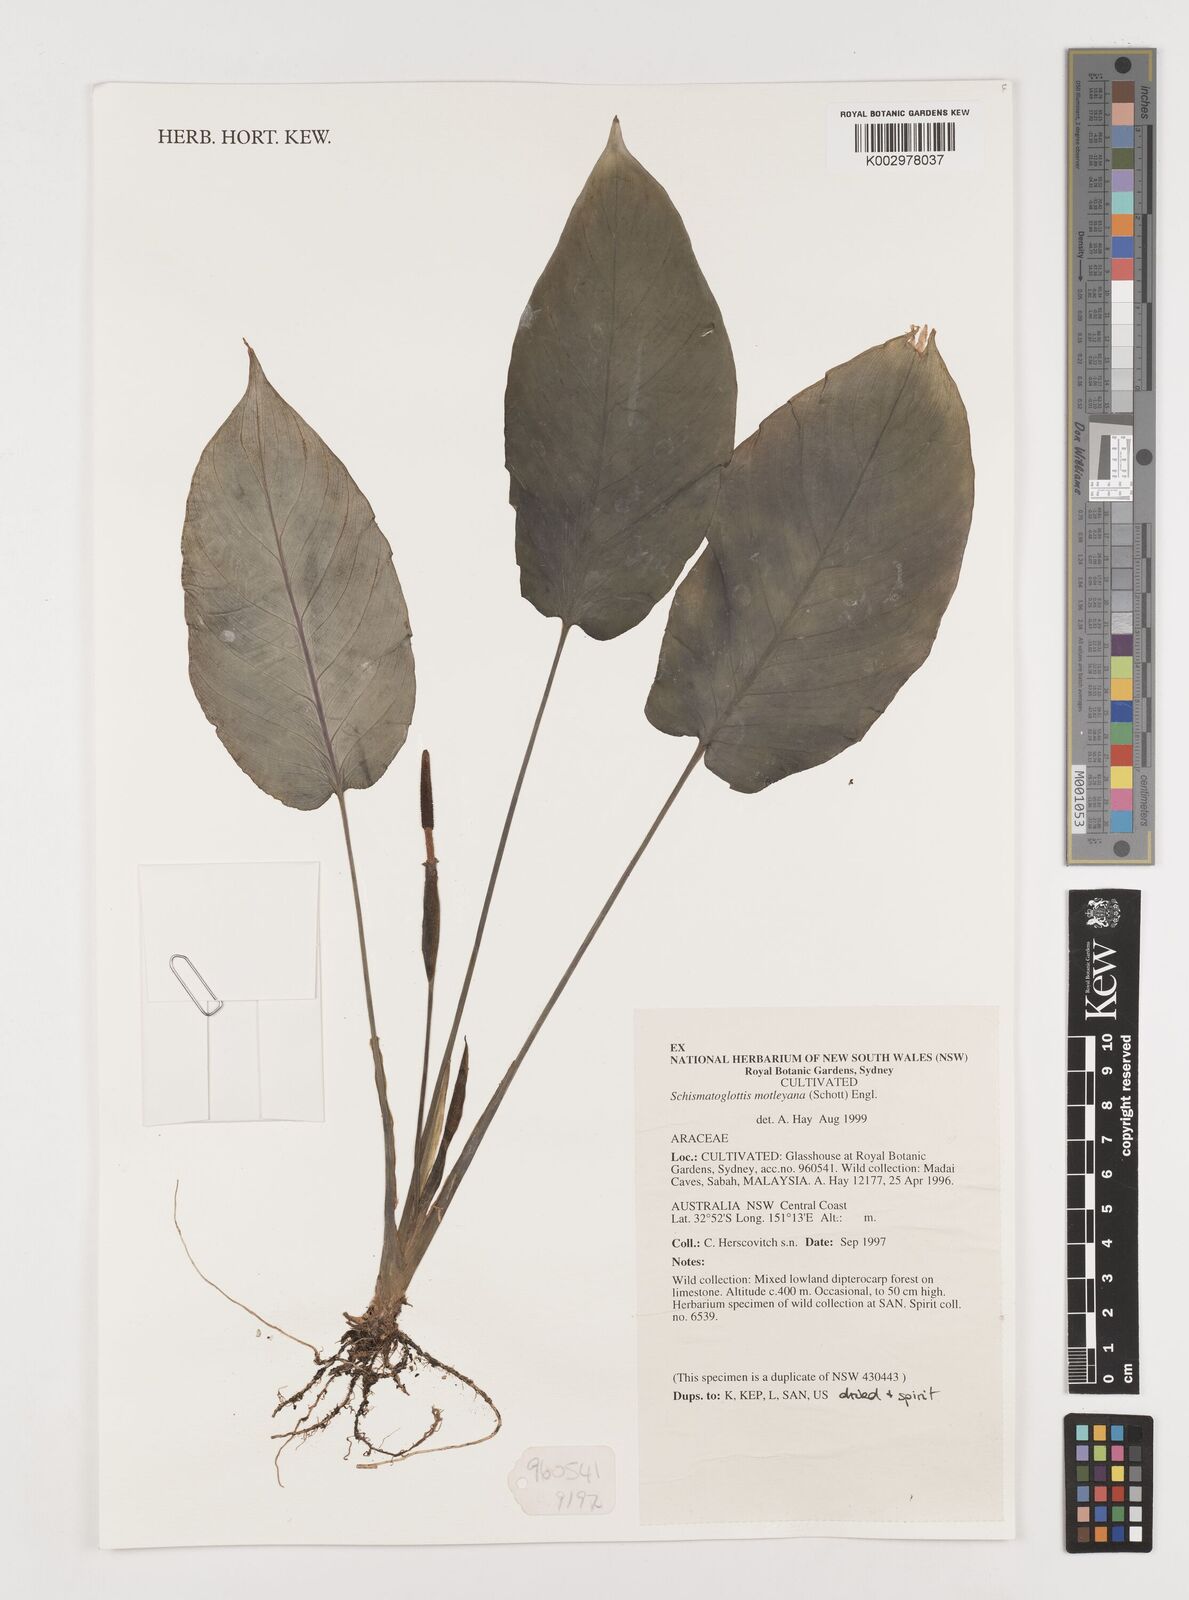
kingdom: Plantae
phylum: Tracheophyta
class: Liliopsida
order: Alismatales
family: Araceae
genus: Schismatoglottis
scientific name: Schismatoglottis motleyana
